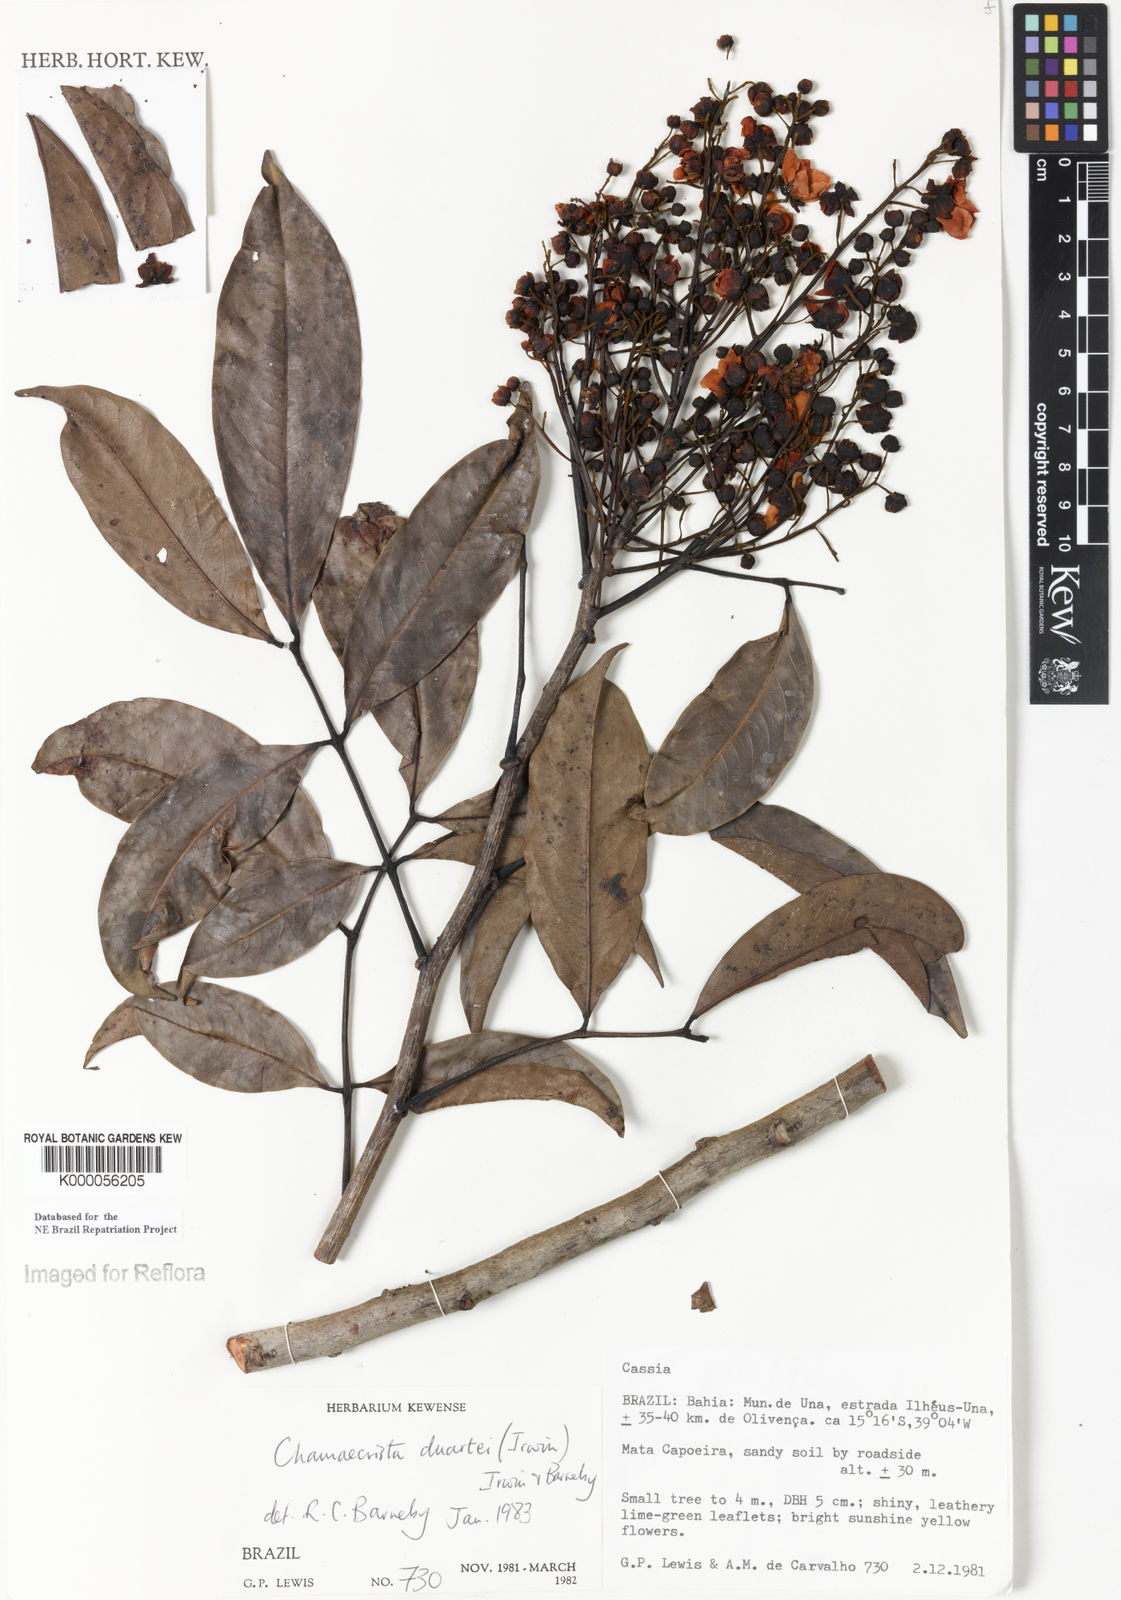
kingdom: Plantae
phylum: Tracheophyta
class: Magnoliopsida
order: Fabales
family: Fabaceae
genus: Chamaecrista
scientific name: Chamaecrista duartei
